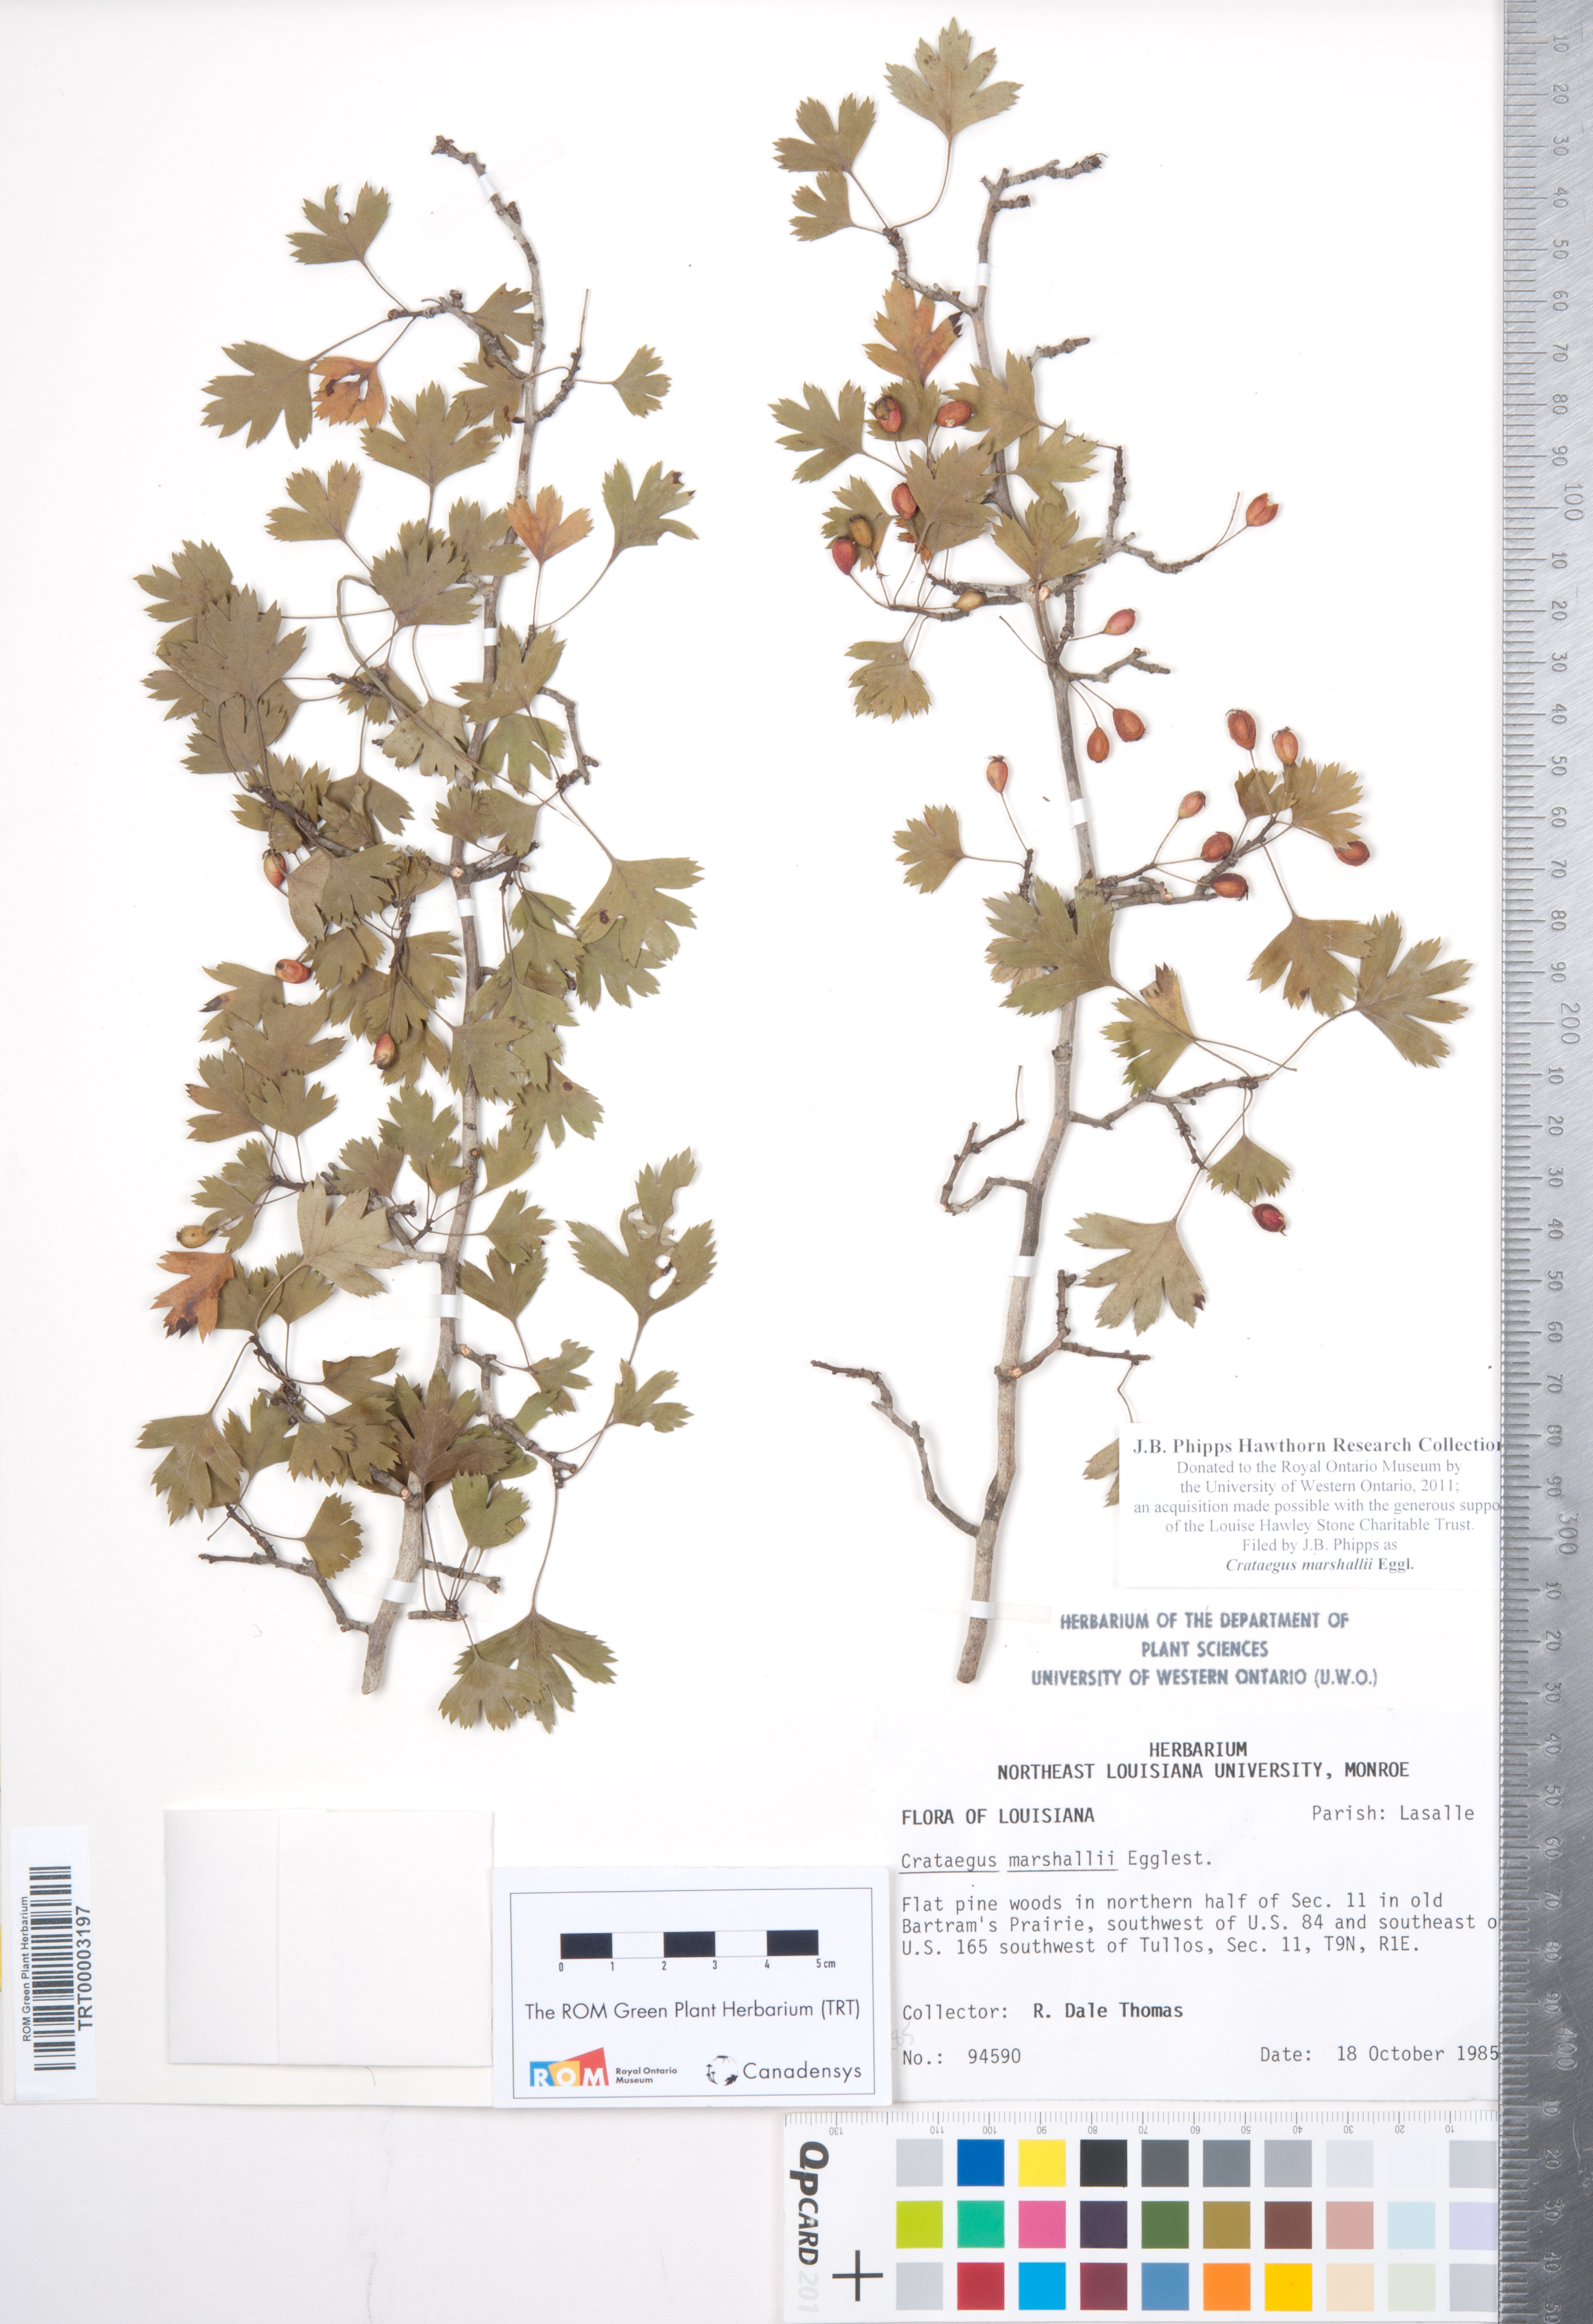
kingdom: Plantae
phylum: Tracheophyta
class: Magnoliopsida
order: Rosales
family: Rosaceae
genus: Crataegus
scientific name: Crataegus marshallii
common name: Parsley-hawthorn
